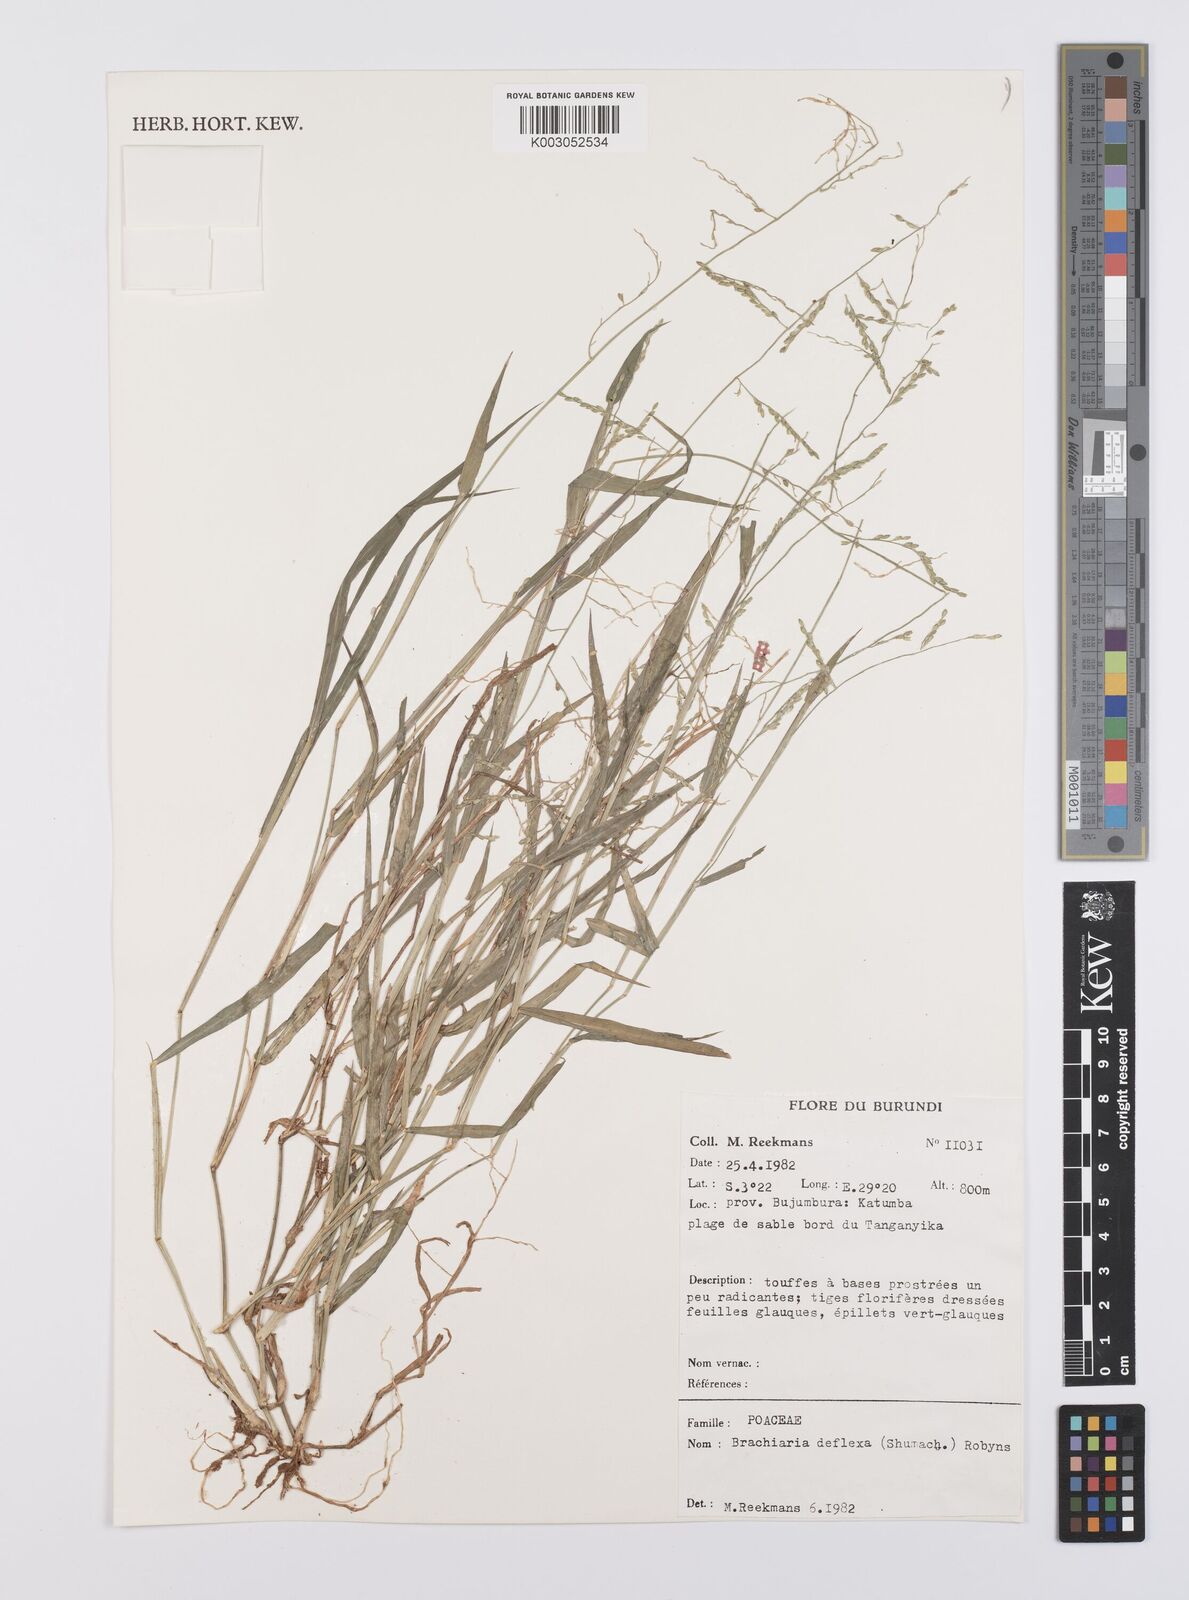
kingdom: Plantae
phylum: Tracheophyta
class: Liliopsida
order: Poales
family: Poaceae
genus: Urochloa
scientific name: Urochloa deflexa
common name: Guinea millet
